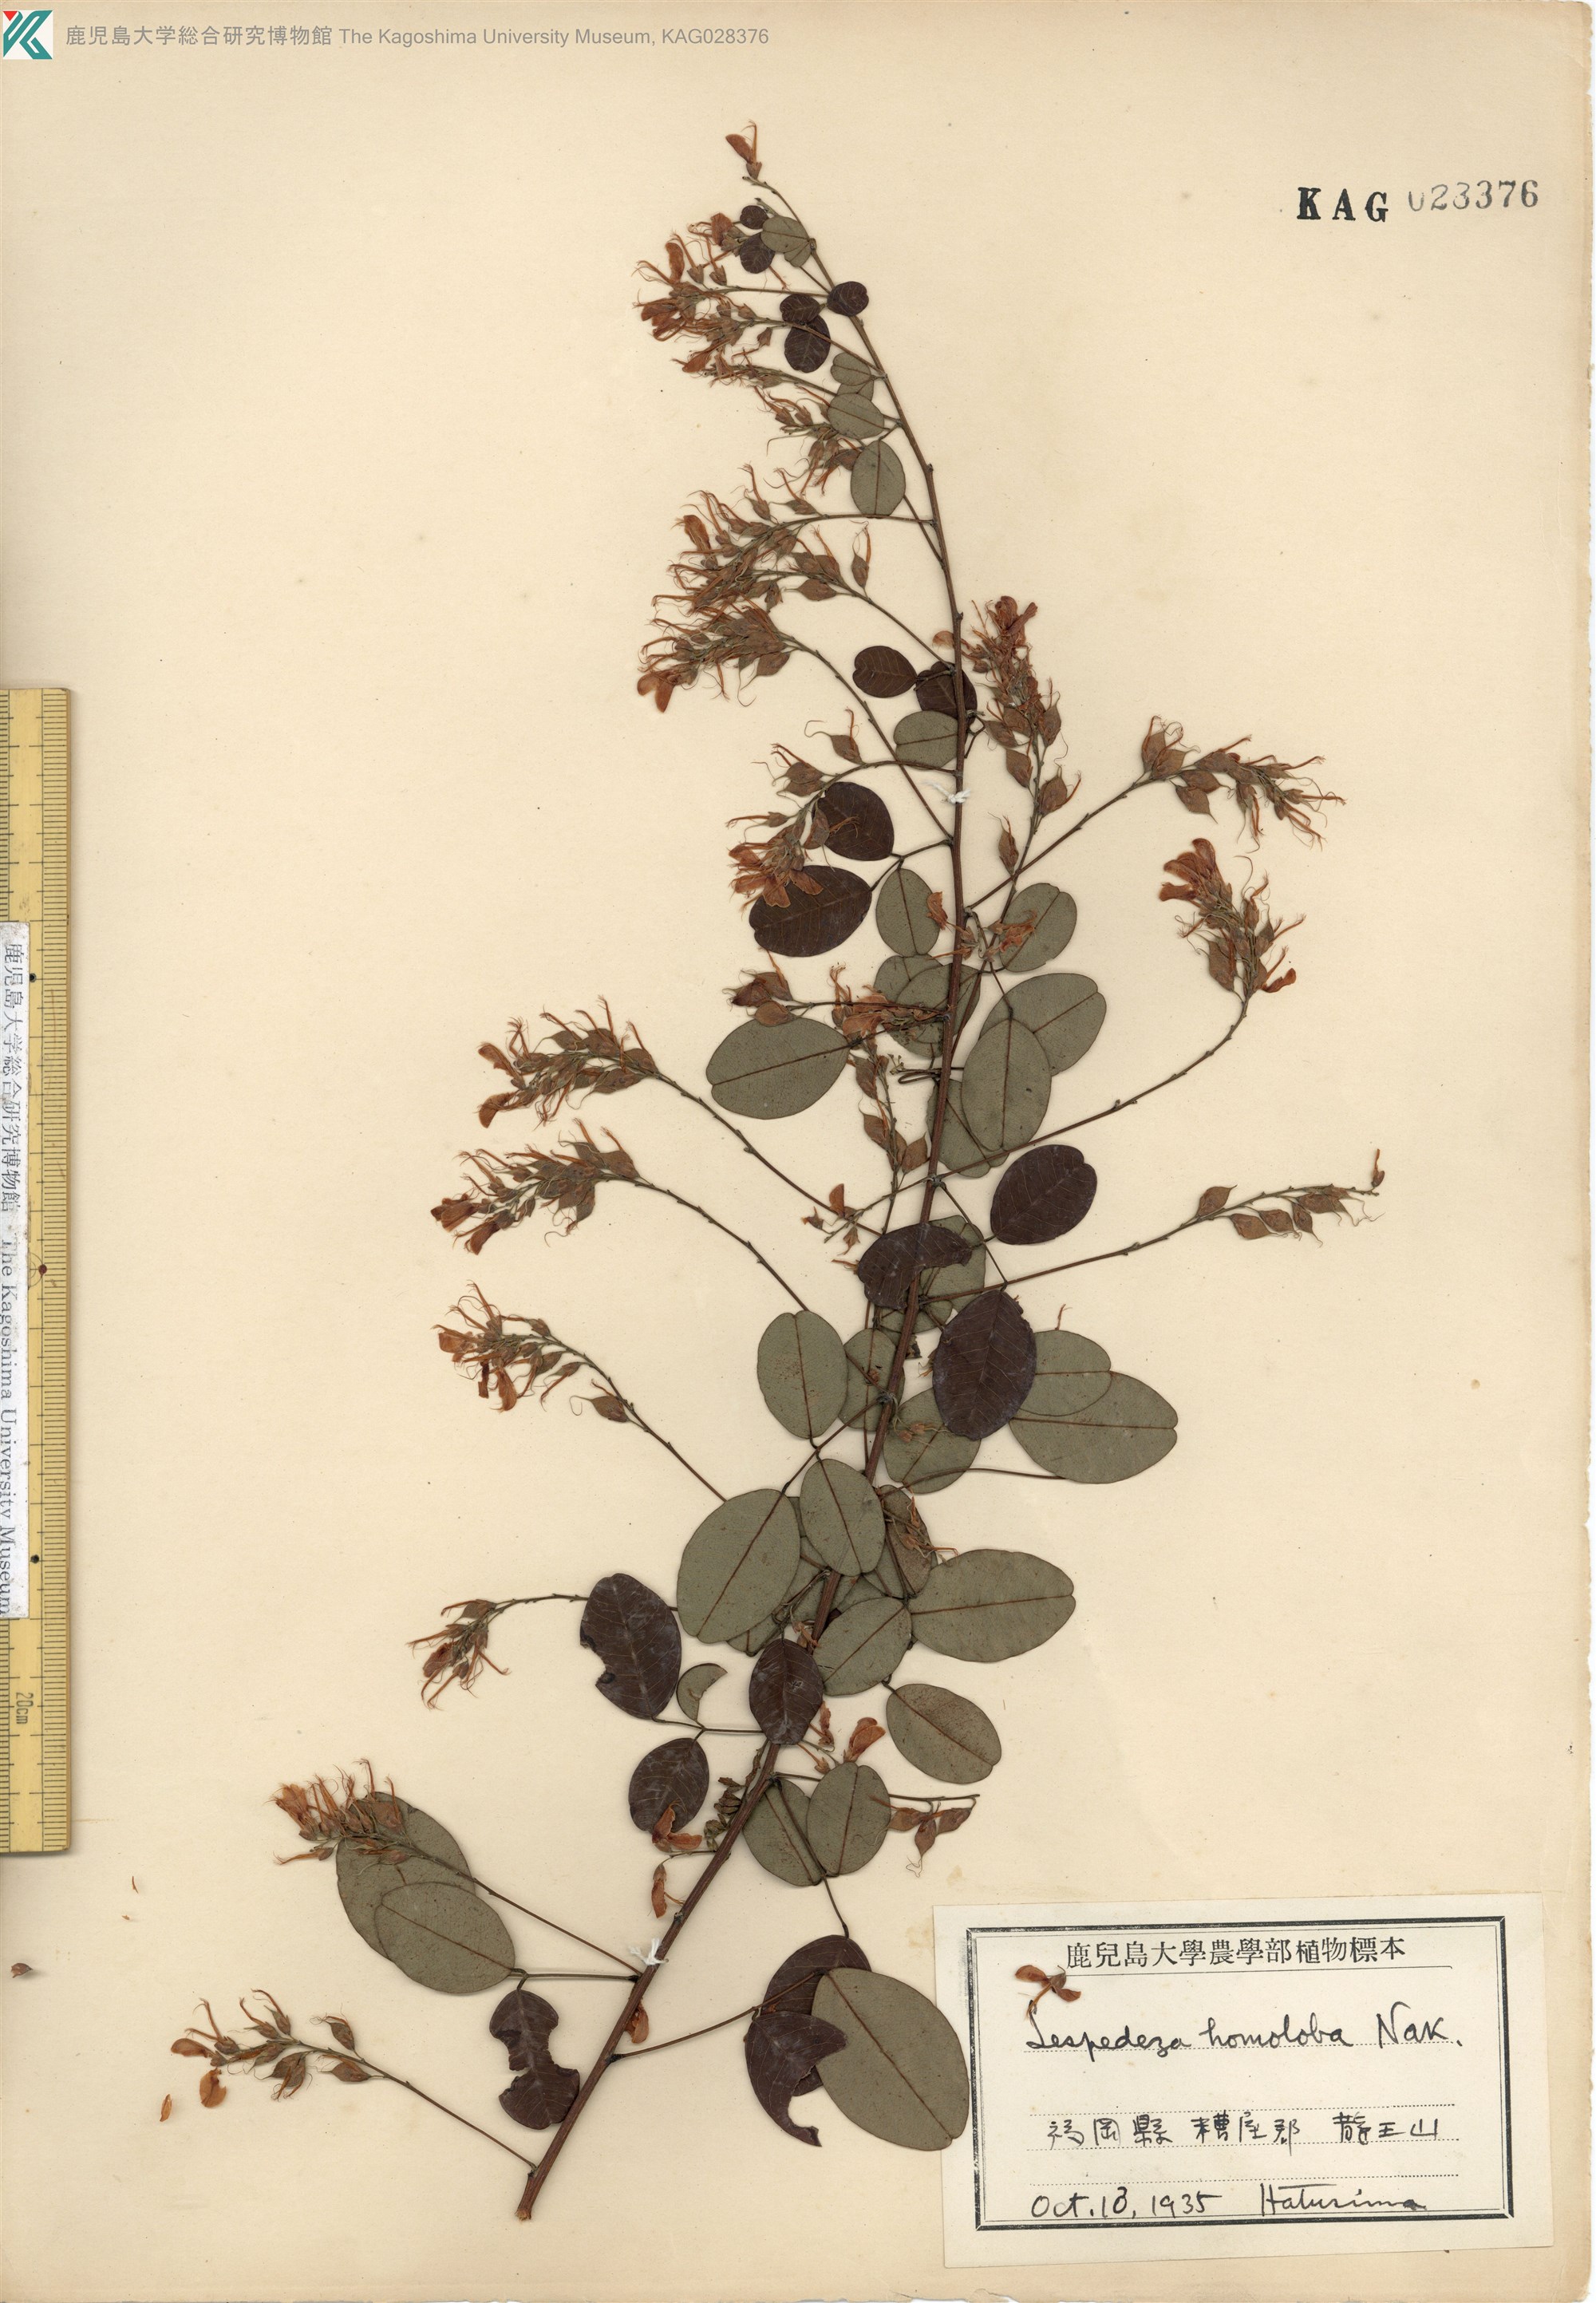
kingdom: Plantae
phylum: Tracheophyta
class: Magnoliopsida
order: Fabales
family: Fabaceae
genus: Lespedeza
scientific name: Lespedeza homoloba
